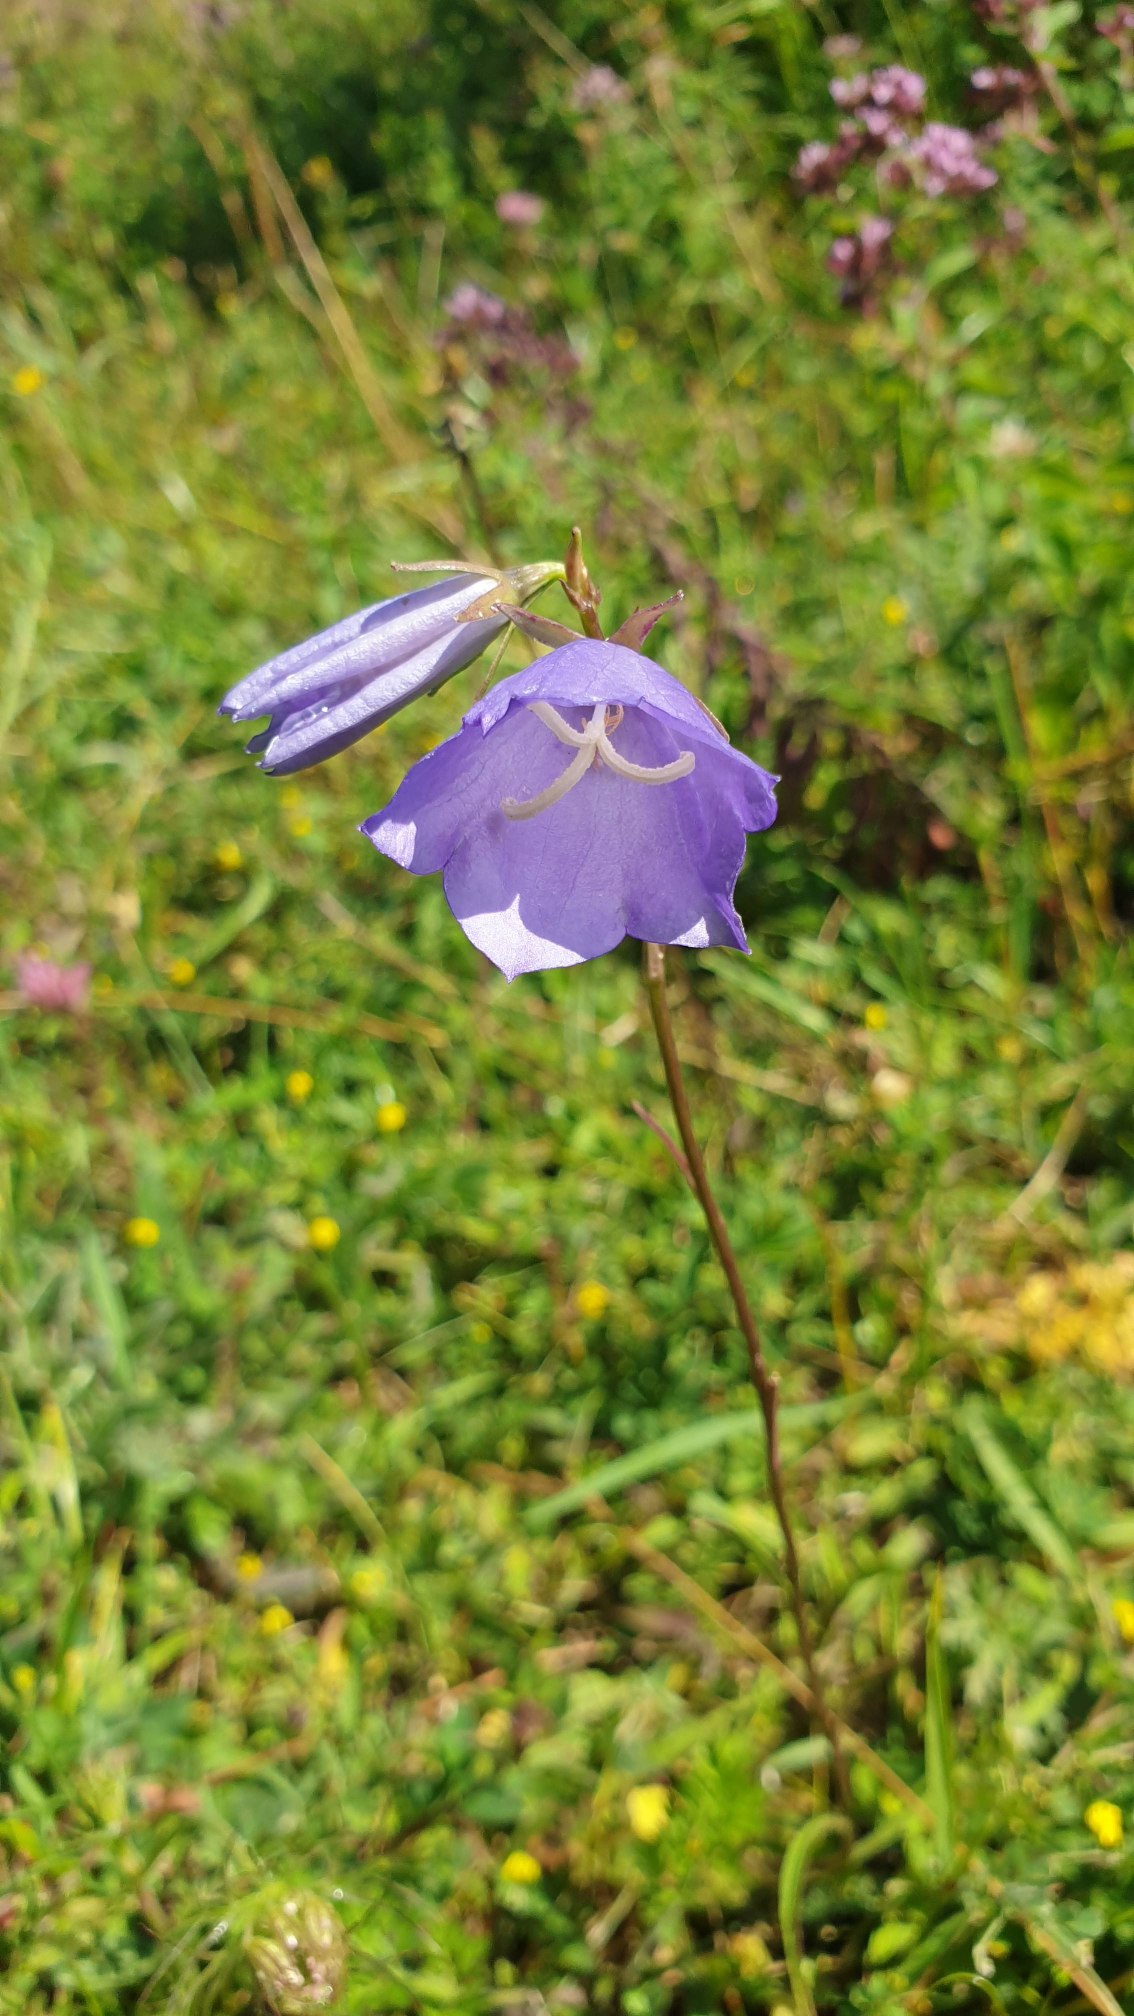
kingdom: Plantae
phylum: Tracheophyta
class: Magnoliopsida
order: Asterales
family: Campanulaceae
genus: Campanula
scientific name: Campanula persicifolia
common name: Smalbladet klokke
